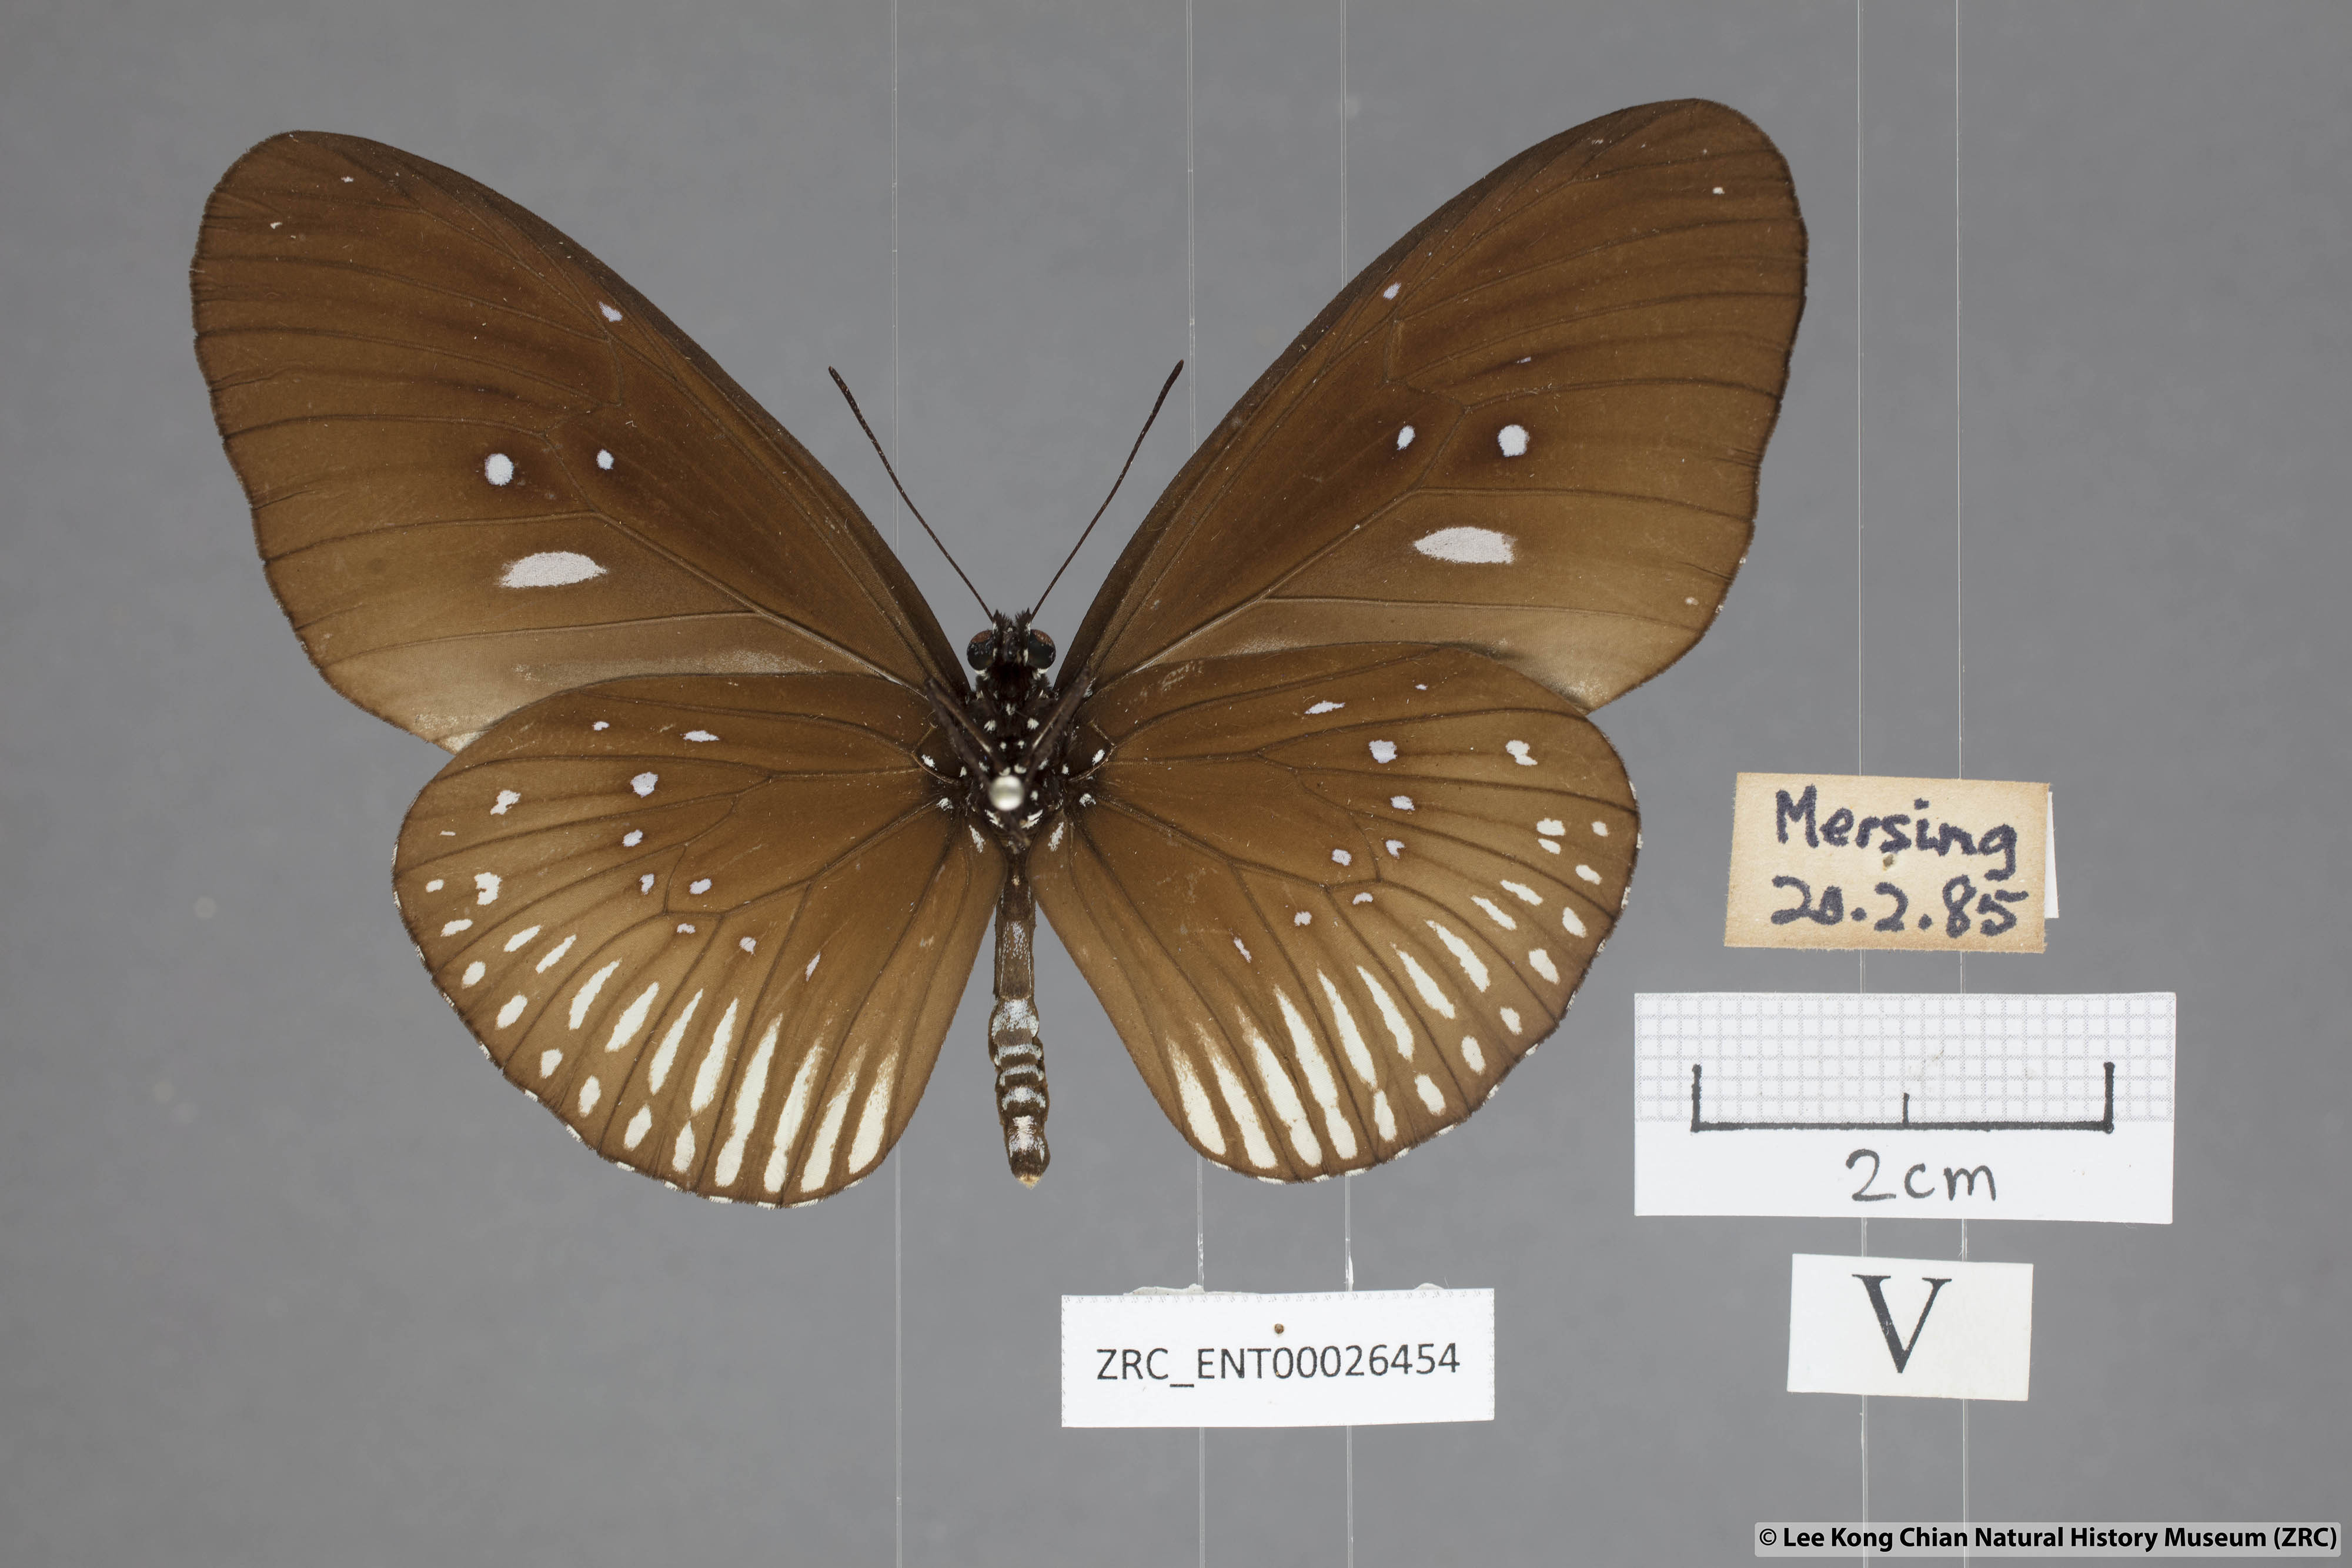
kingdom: Animalia
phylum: Arthropoda
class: Insecta
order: Lepidoptera
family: Nymphalidae
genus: Euploea
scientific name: Euploea eyndhovii
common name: Striped black crow butterfly
